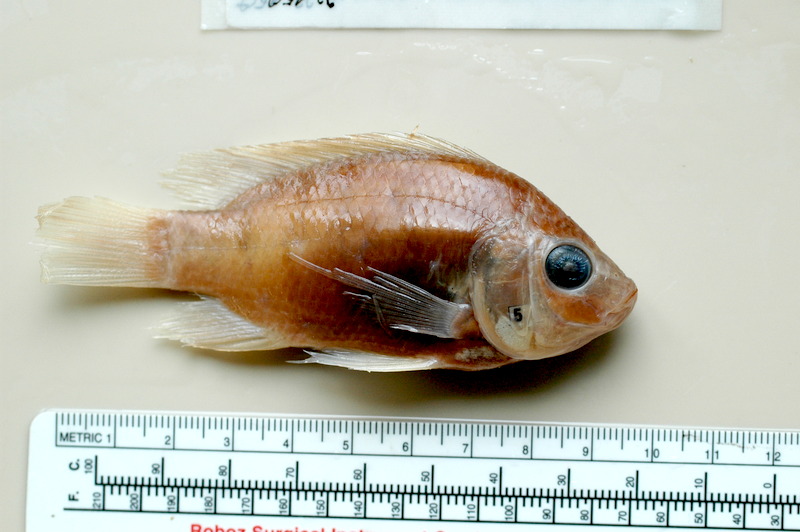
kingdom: Animalia
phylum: Chordata
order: Perciformes
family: Cichlidae
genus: Sarotherodon
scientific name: Sarotherodon galilaeus
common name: Mango tilapia
